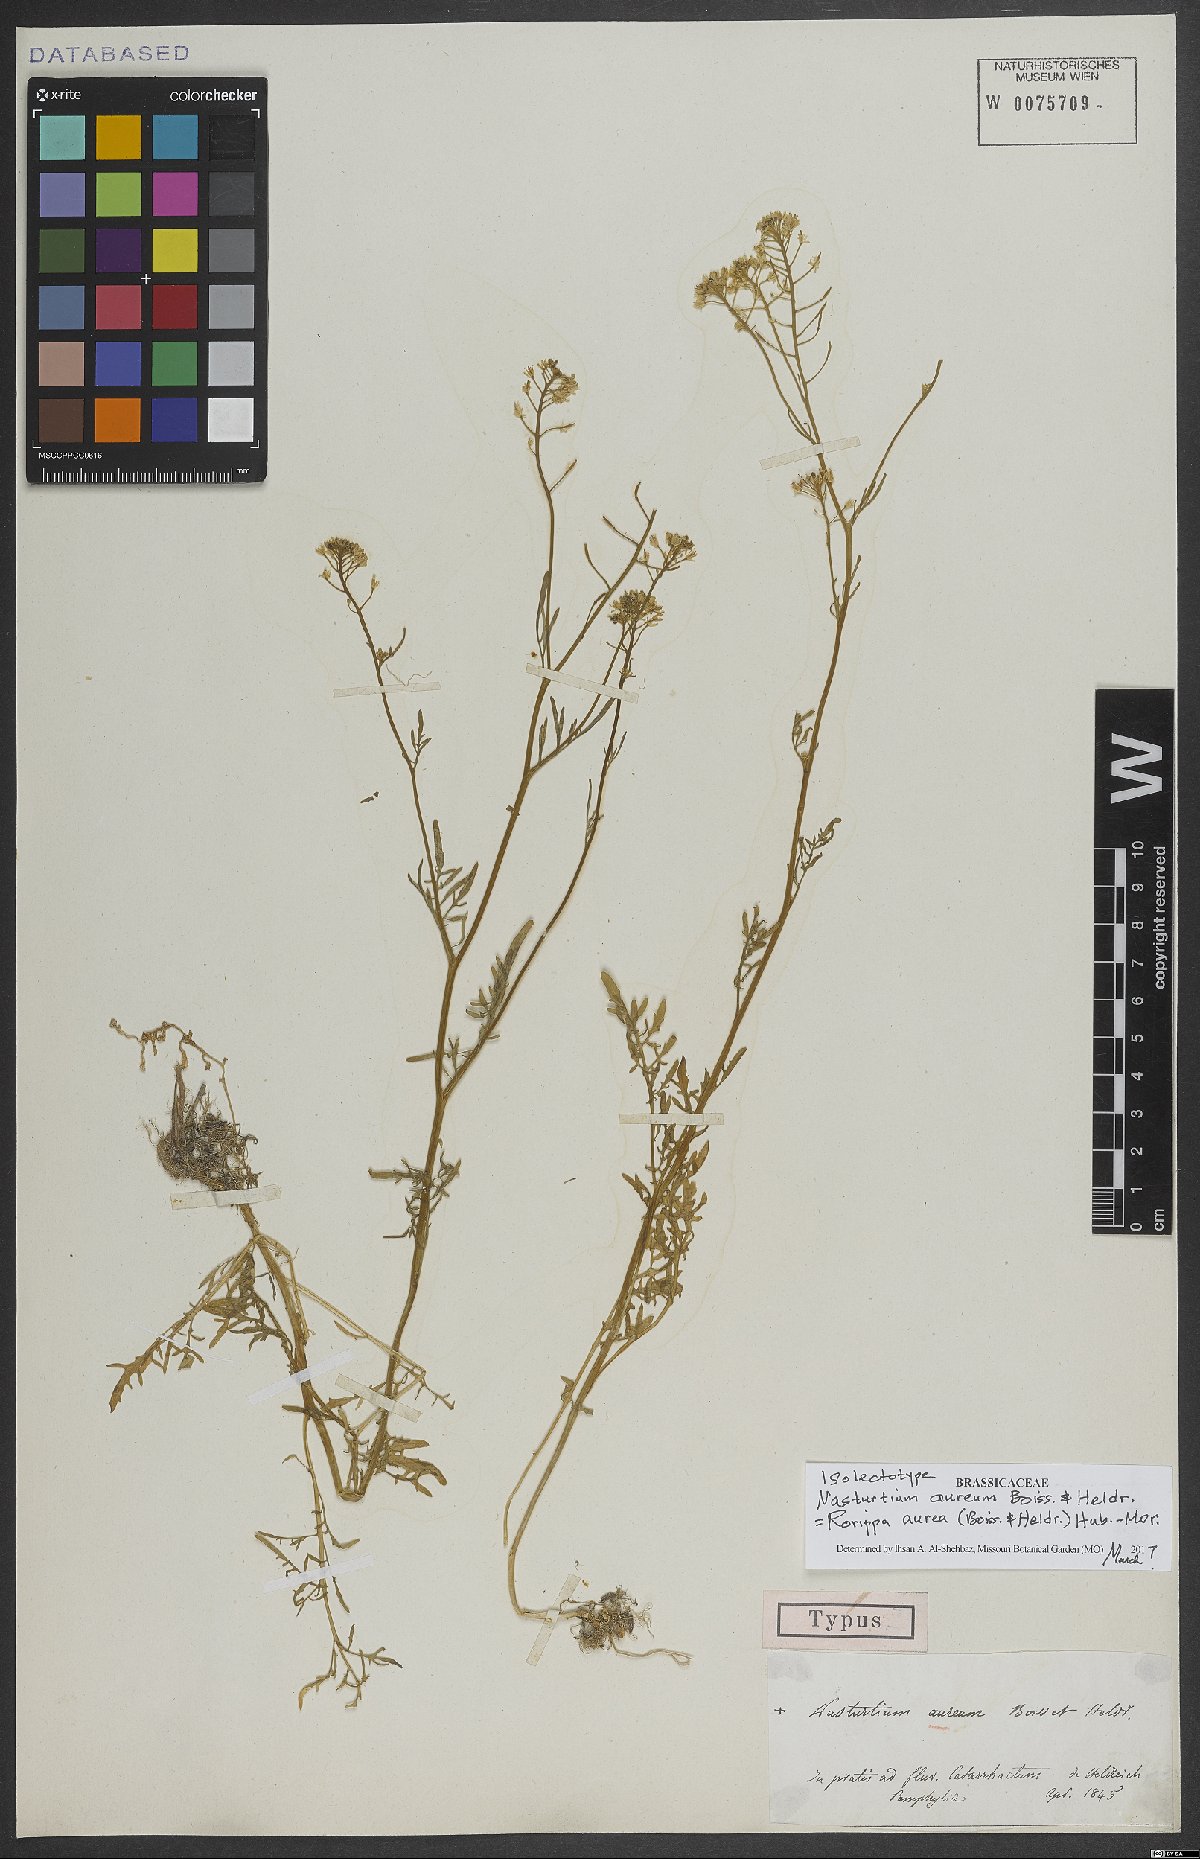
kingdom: Plantae
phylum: Tracheophyta
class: Magnoliopsida
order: Brassicales
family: Brassicaceae
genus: Rorippa
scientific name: Rorippa aurea
